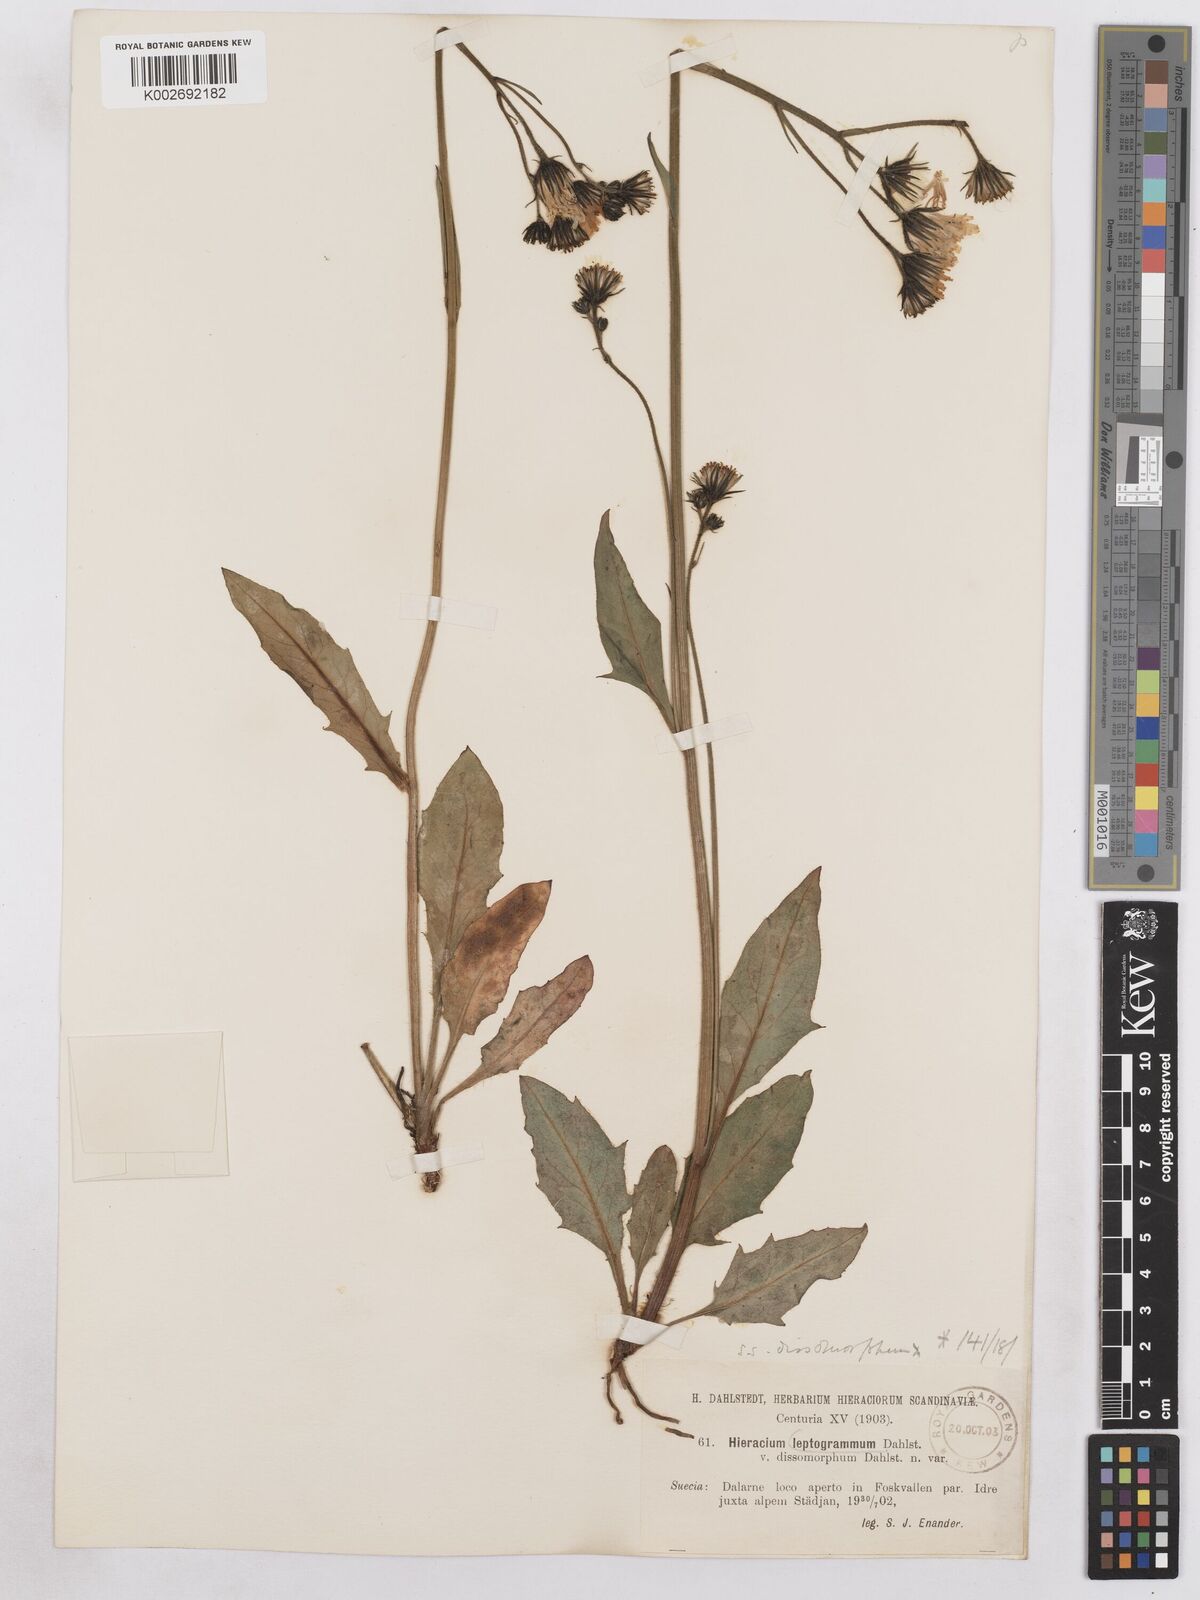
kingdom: Plantae
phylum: Tracheophyta
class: Magnoliopsida
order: Asterales
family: Asteraceae
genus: Hieracium
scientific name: Hieracium diaphanoides
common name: Fine-bracted hawkweed
